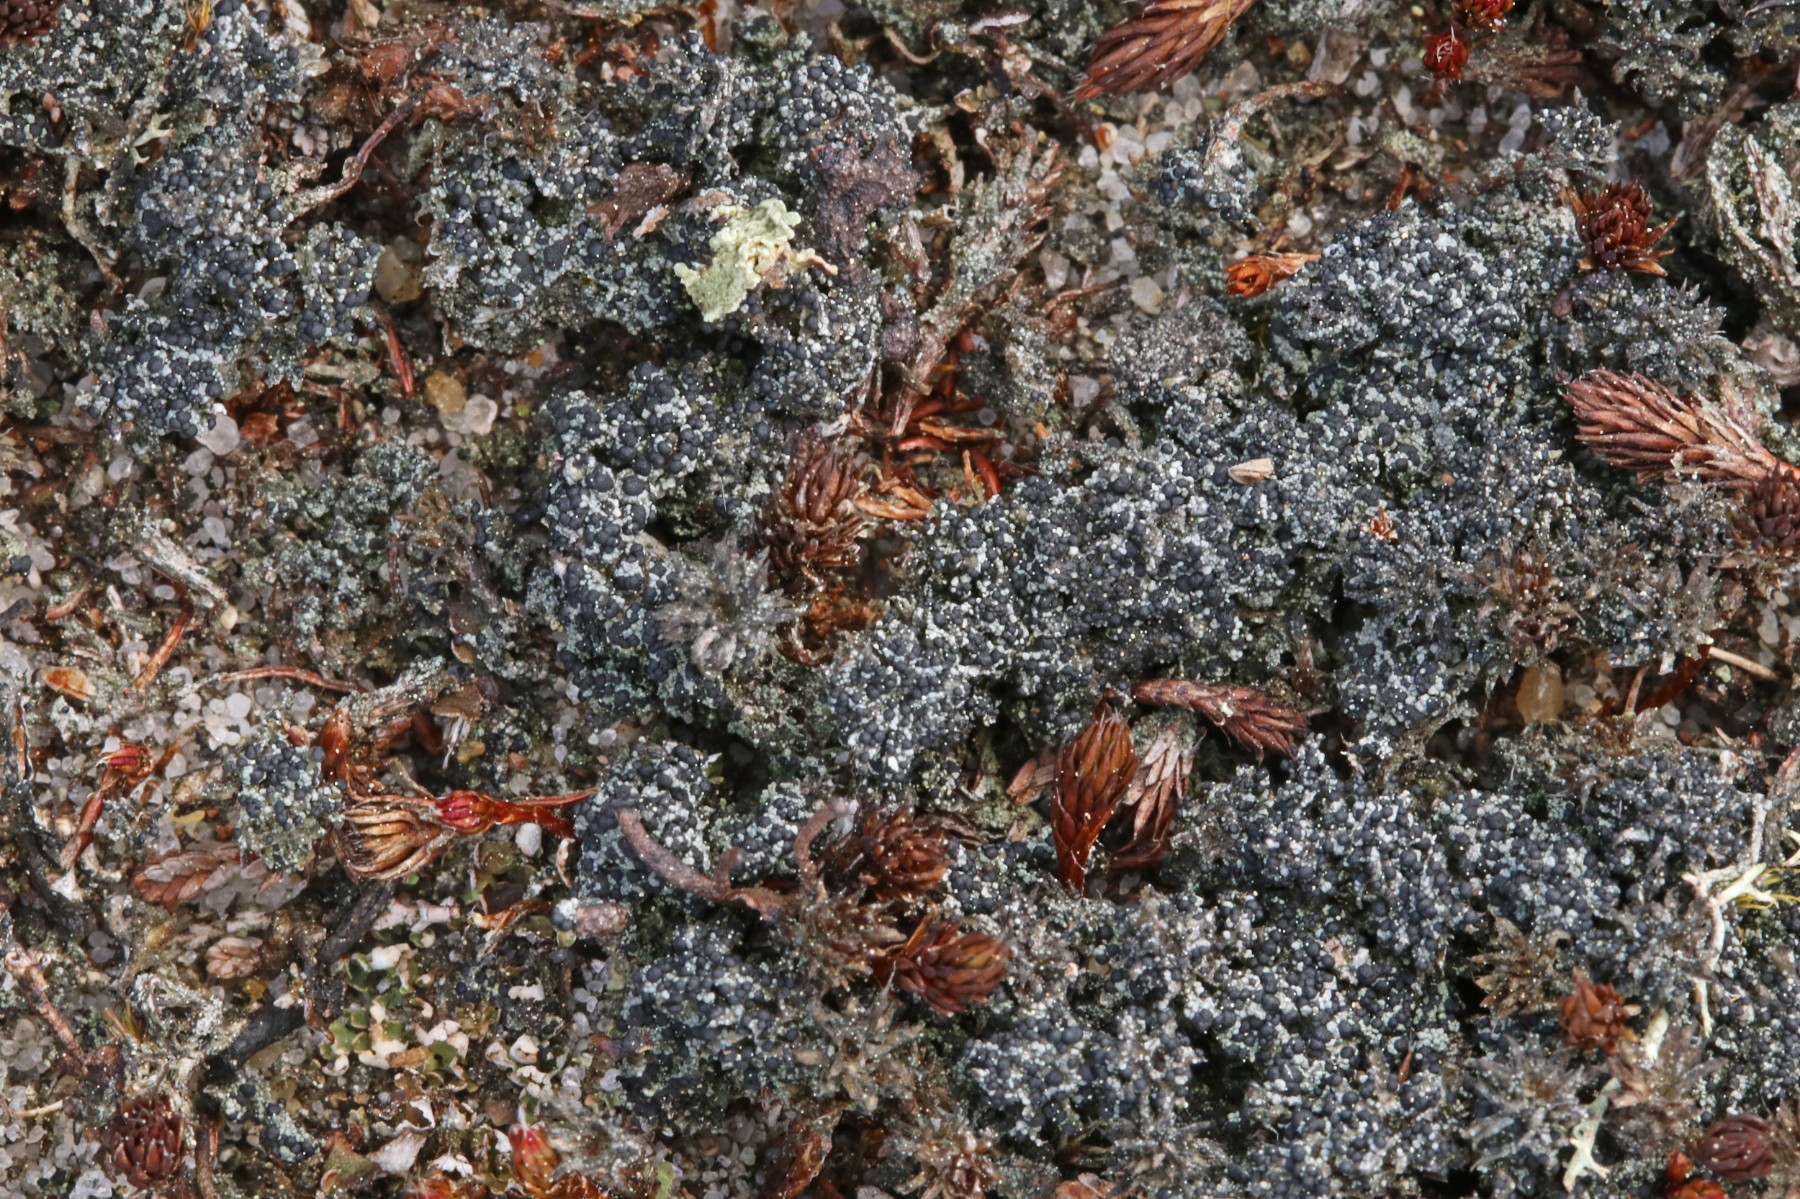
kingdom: Fungi
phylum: Ascomycota
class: Lecanoromycetes
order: Lecanorales
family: Byssolomataceae
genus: Micarea
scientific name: Micarea lignaria
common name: tørve-knaplav
